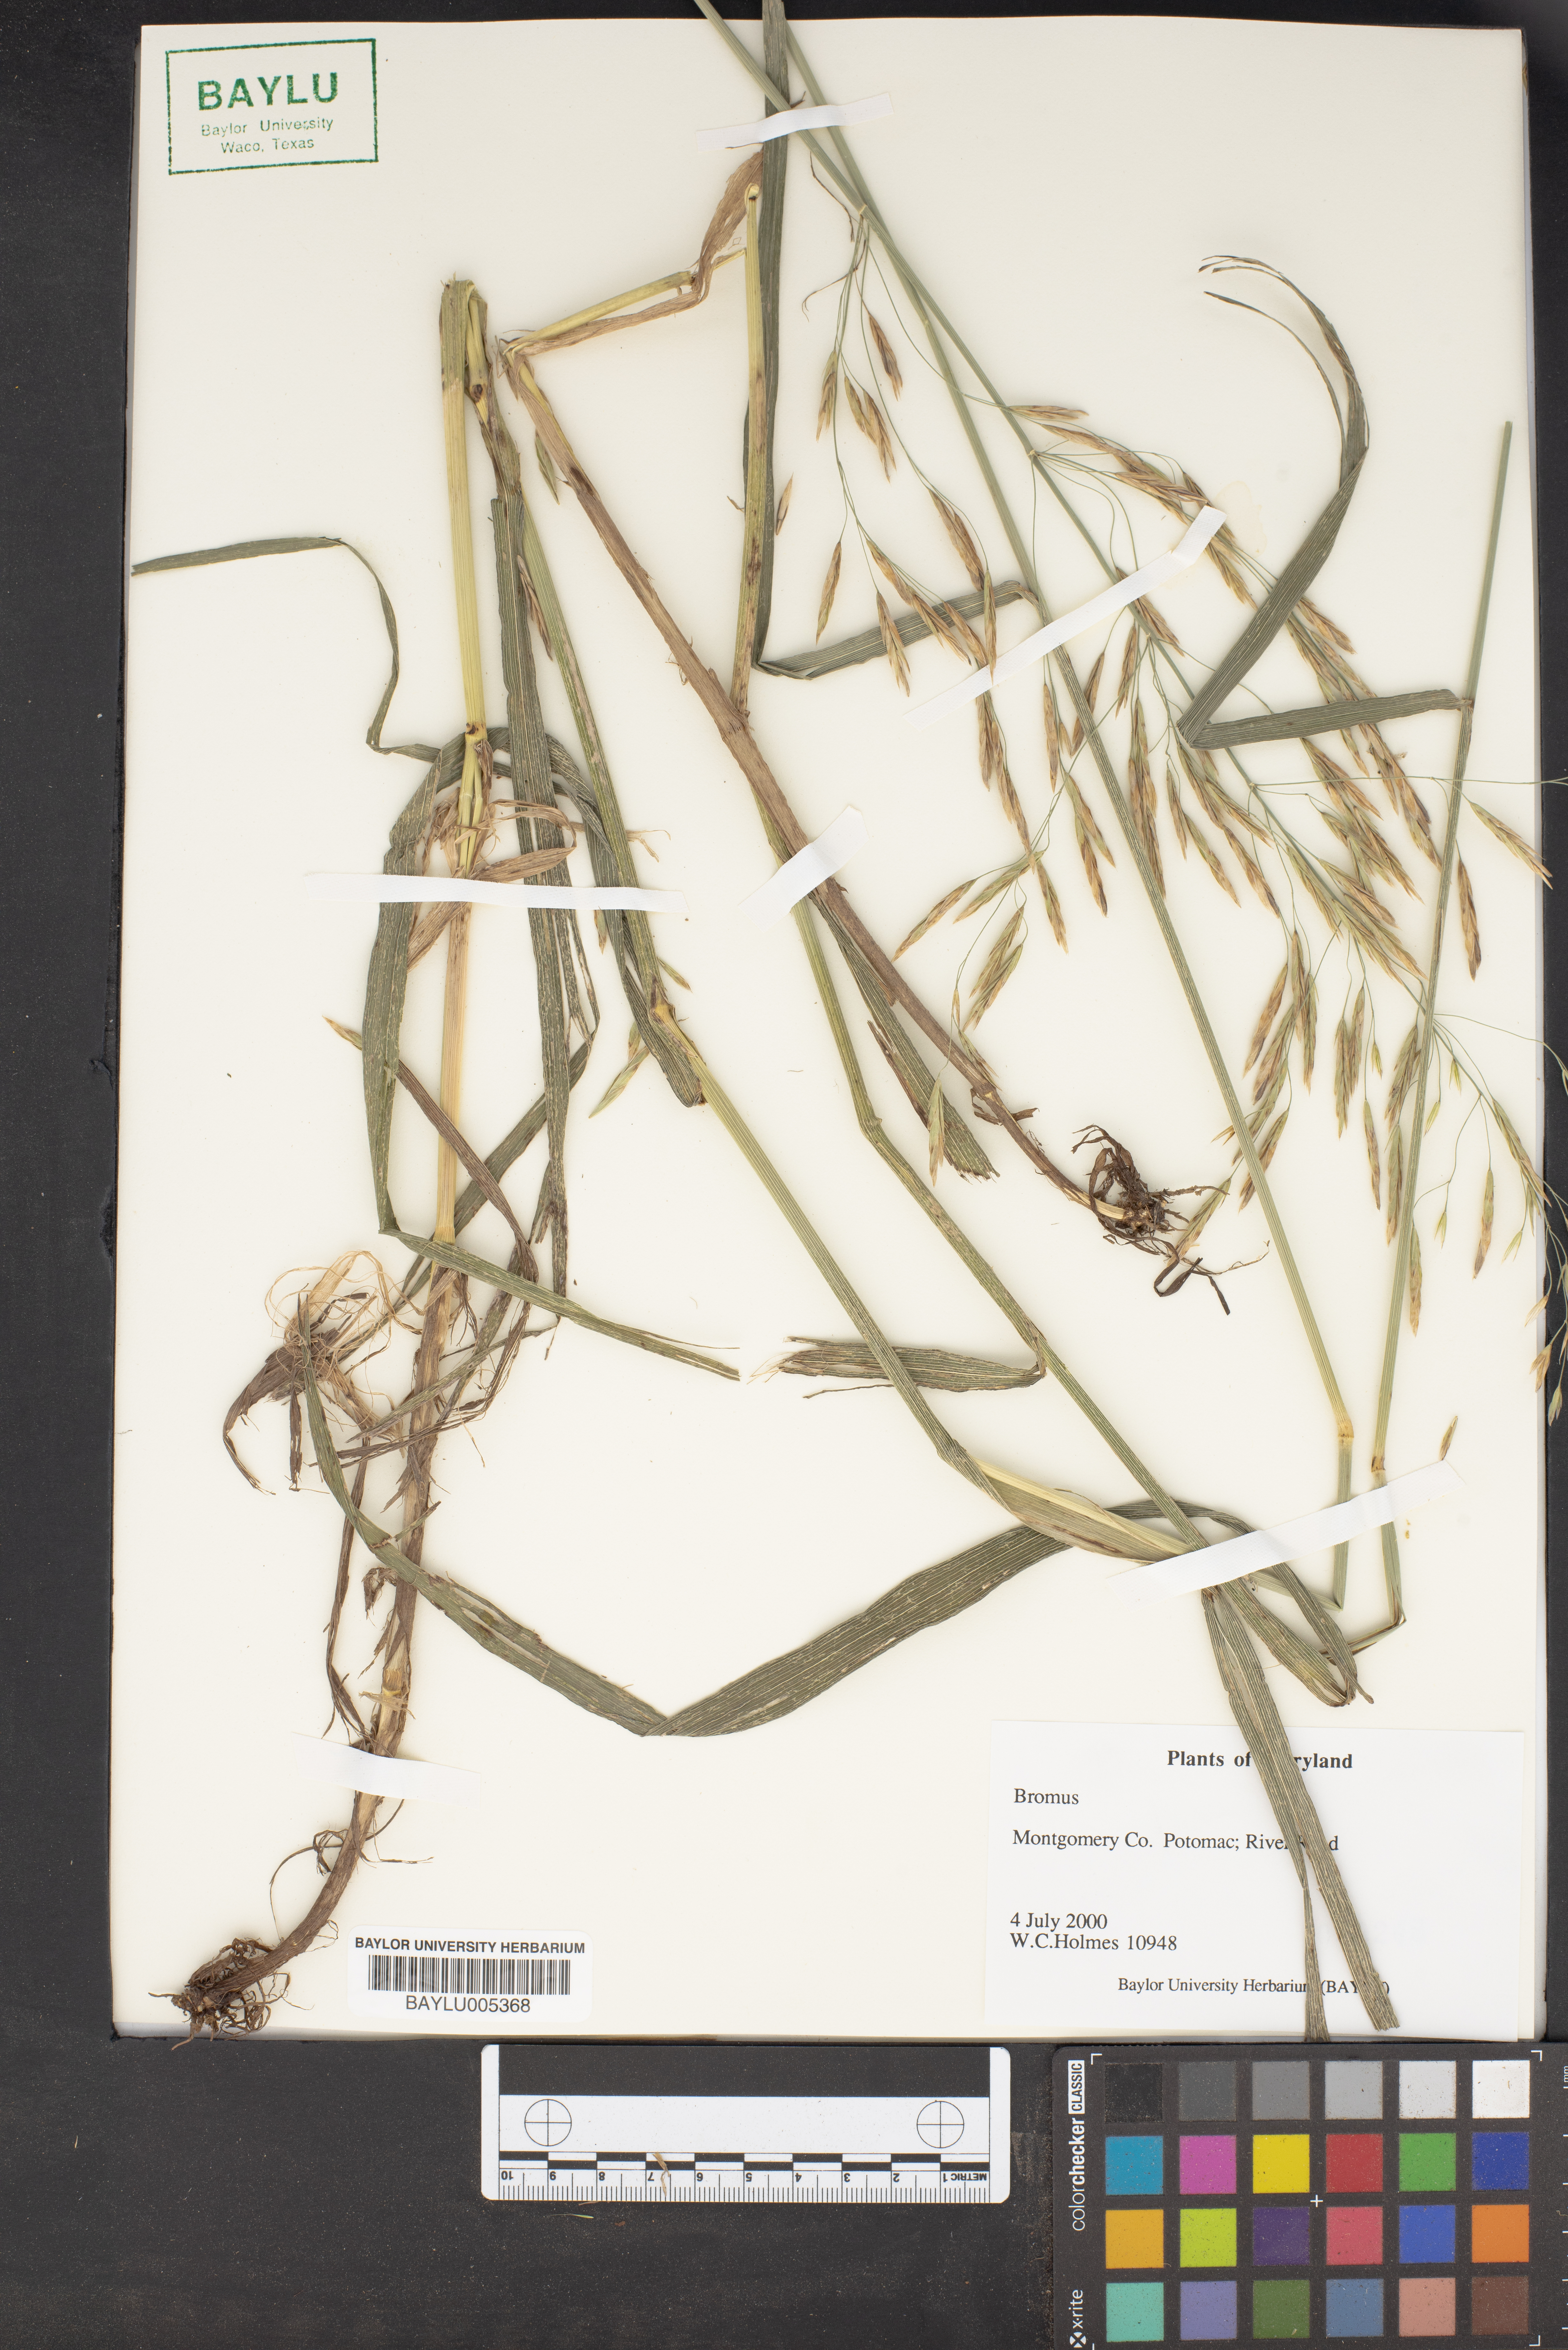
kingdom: Plantae
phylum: Tracheophyta
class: Liliopsida
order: Poales
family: Poaceae
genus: Bromus
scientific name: Bromus
